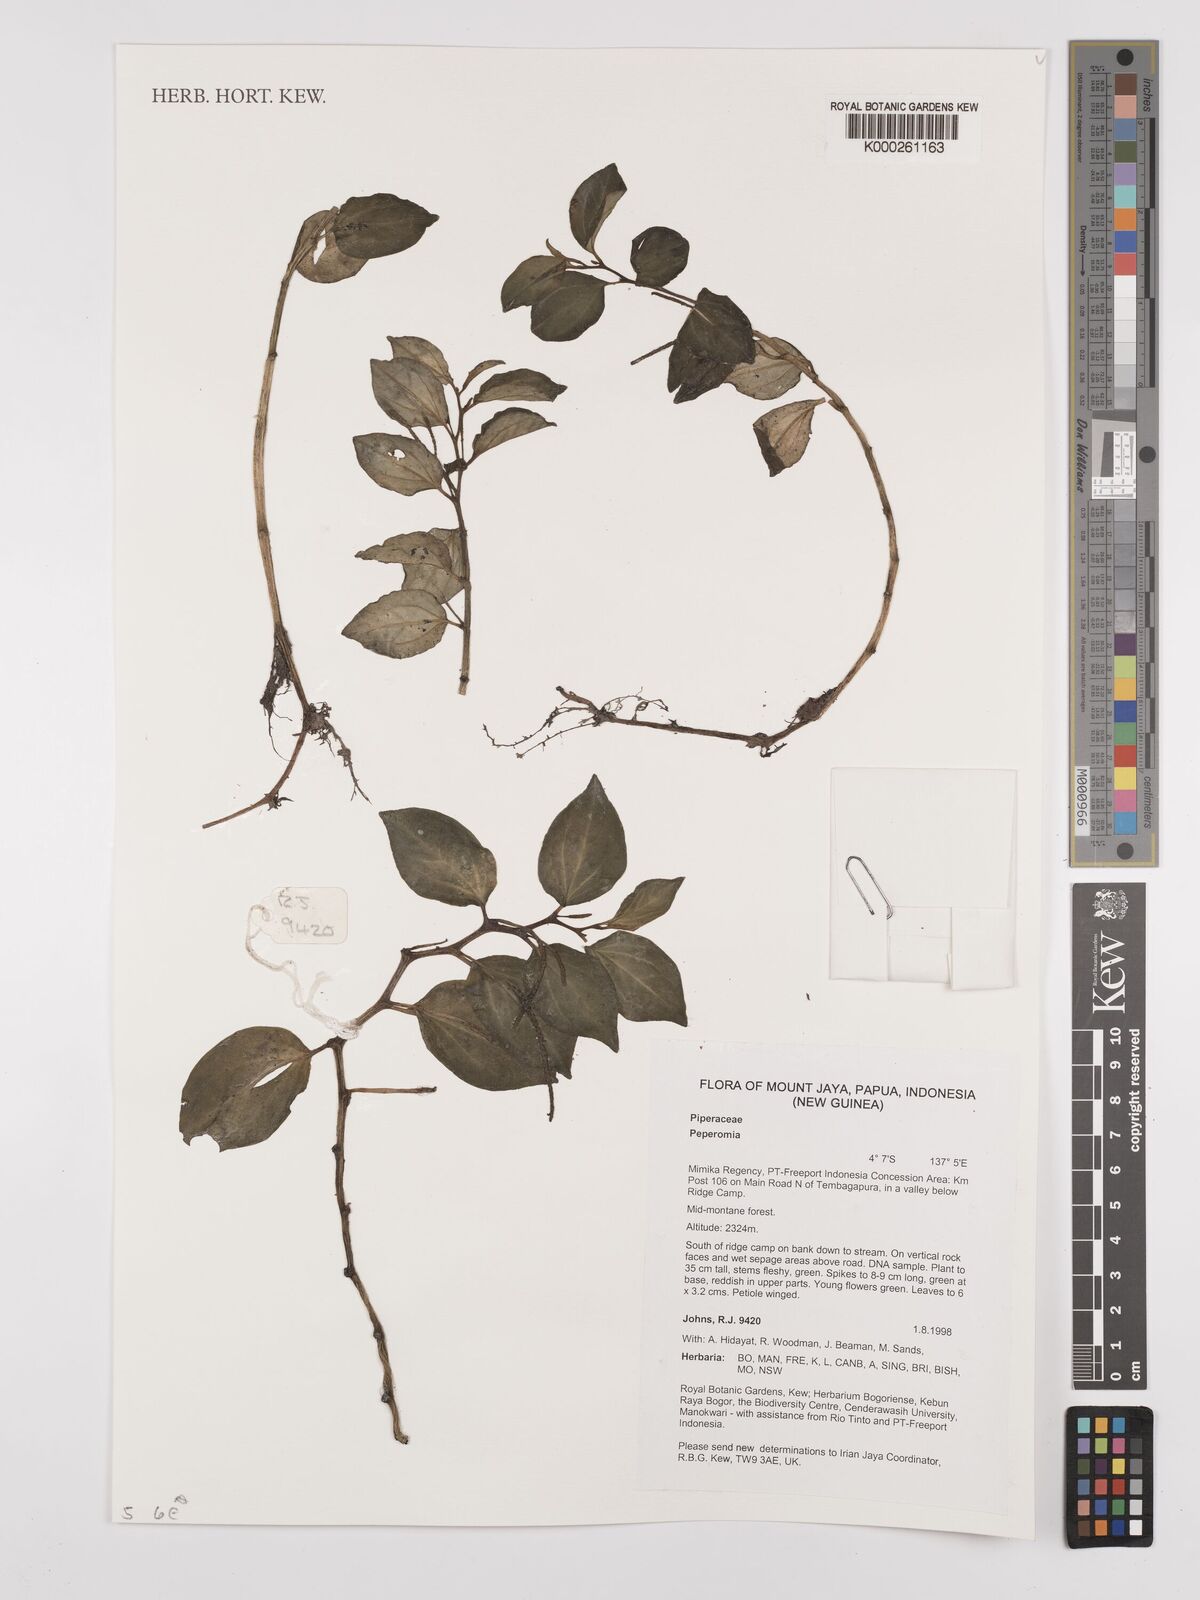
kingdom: Plantae
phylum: Tracheophyta
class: Magnoliopsida
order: Piperales
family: Piperaceae
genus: Peperomia
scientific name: Peperomia
